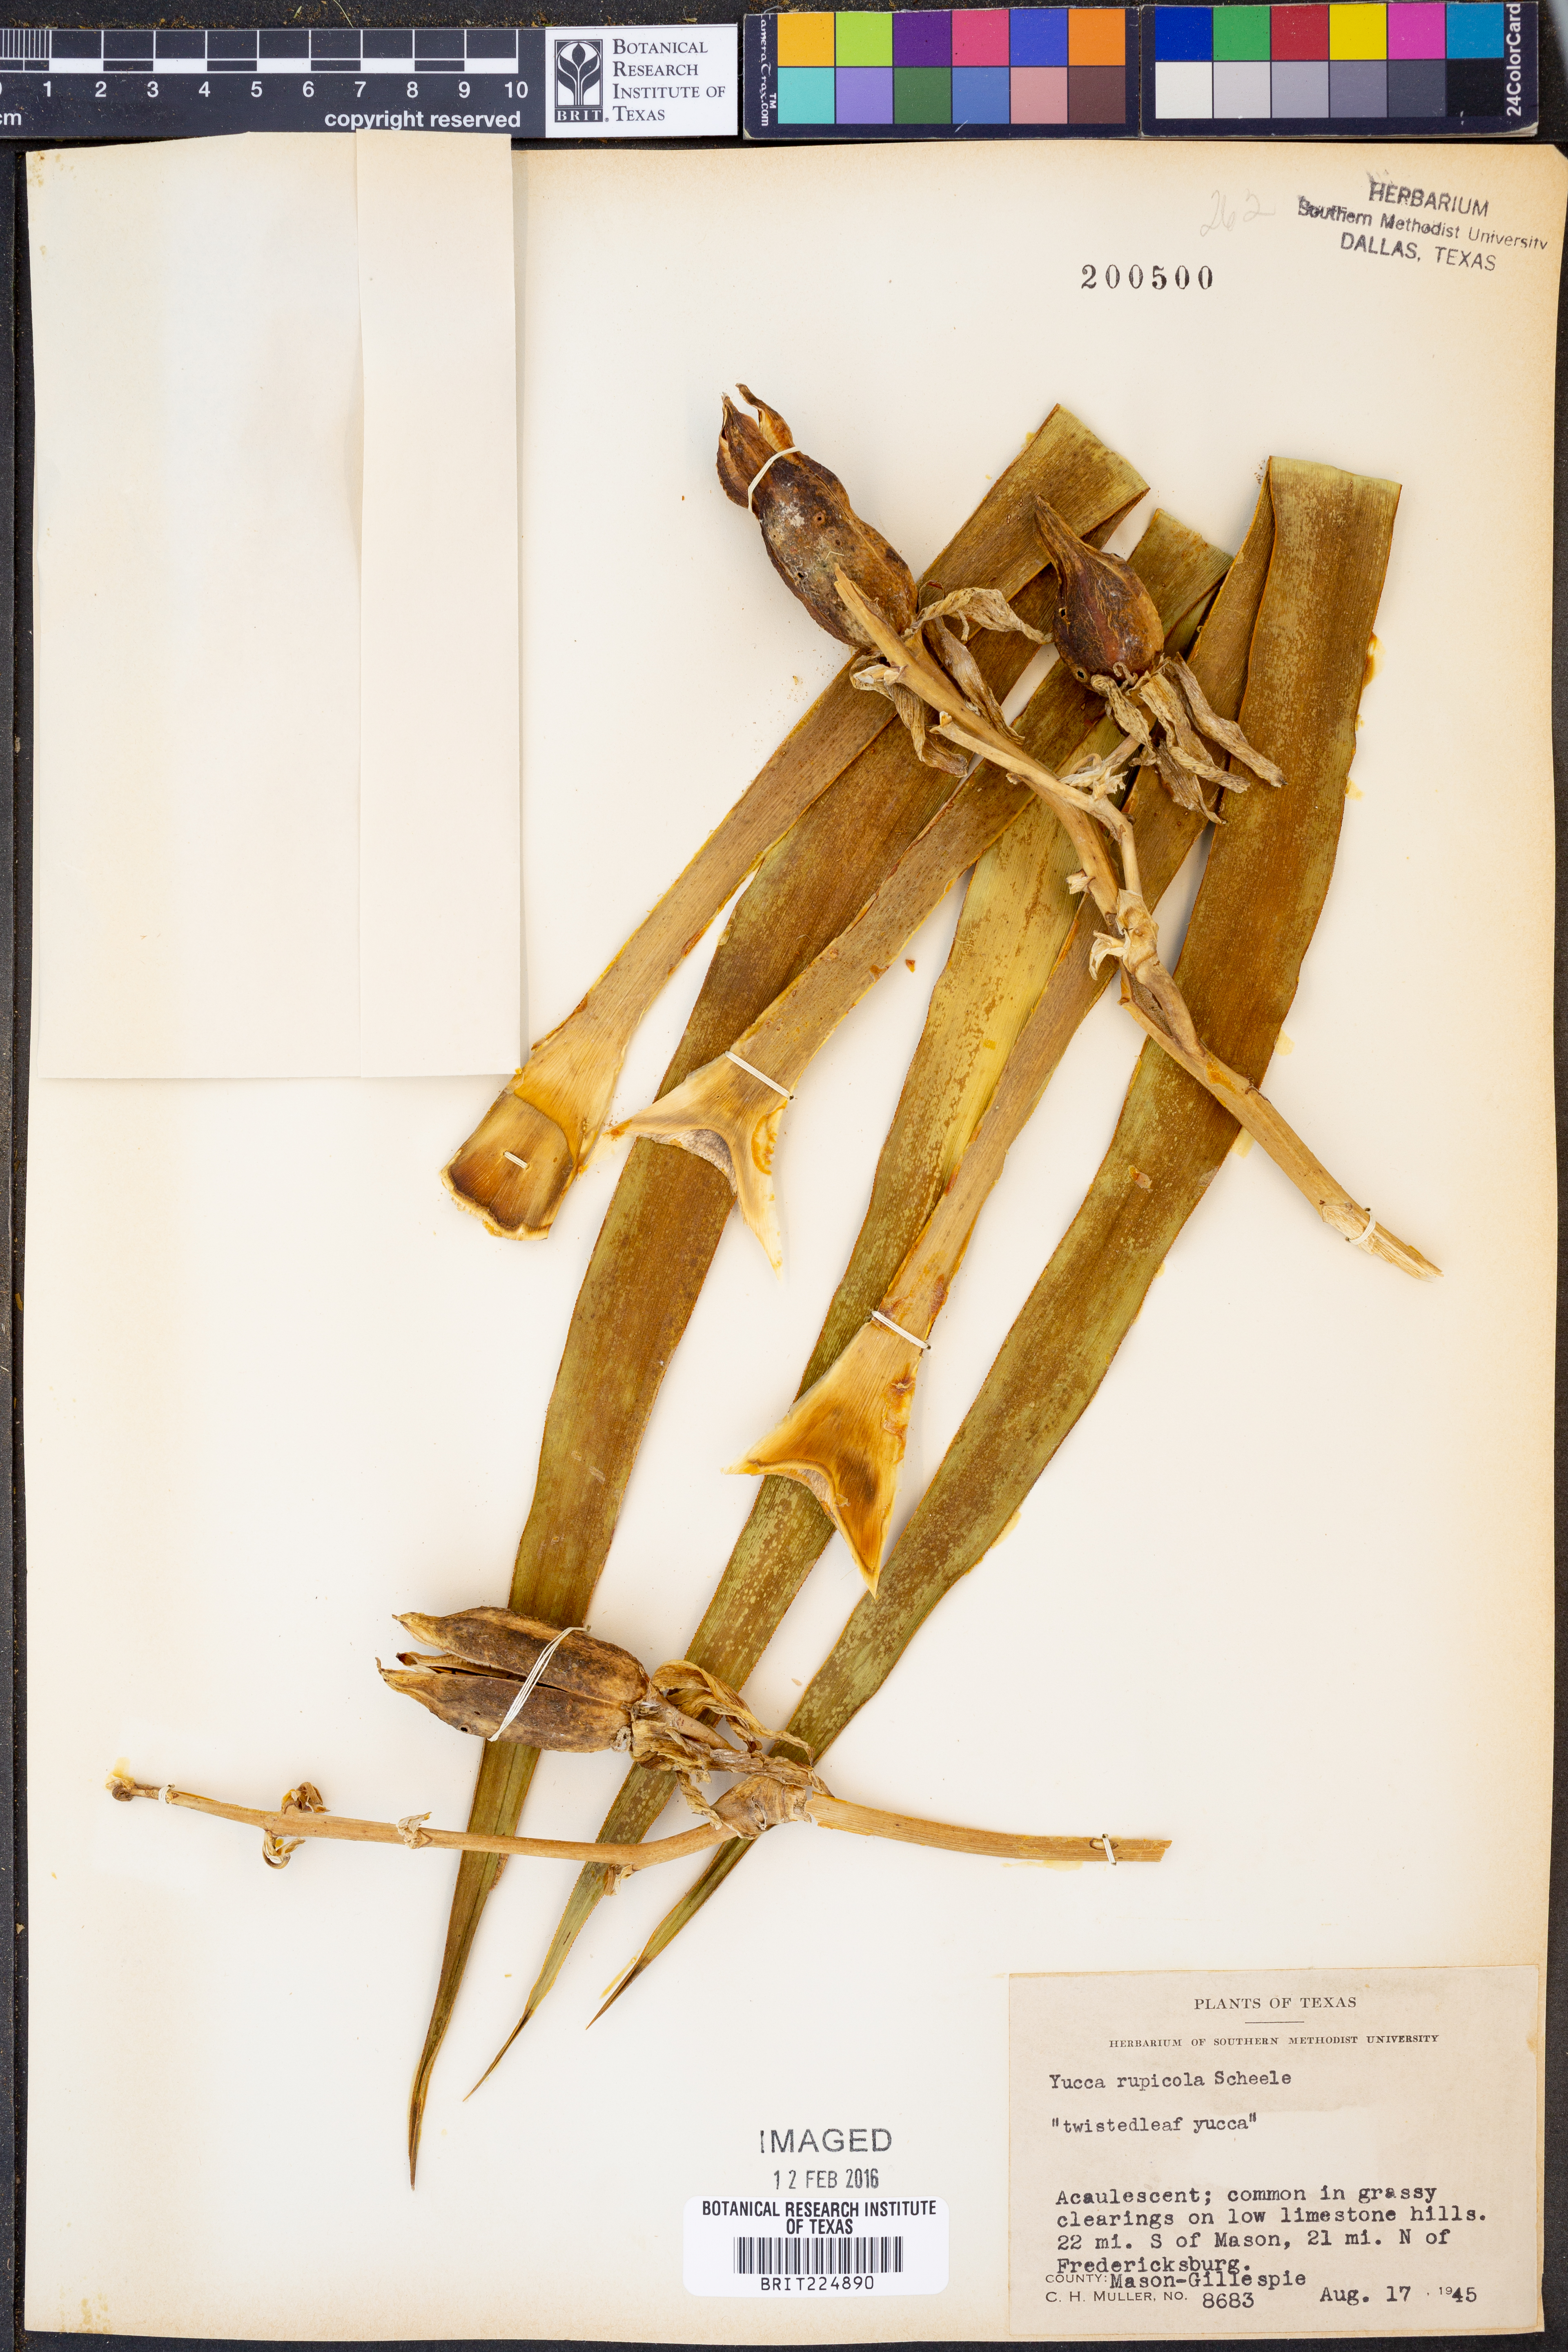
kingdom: Plantae
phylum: Tracheophyta
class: Liliopsida
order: Asparagales
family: Asparagaceae
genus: Yucca
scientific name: Yucca rupicola
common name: Twisted-leaf spanish-dagger
